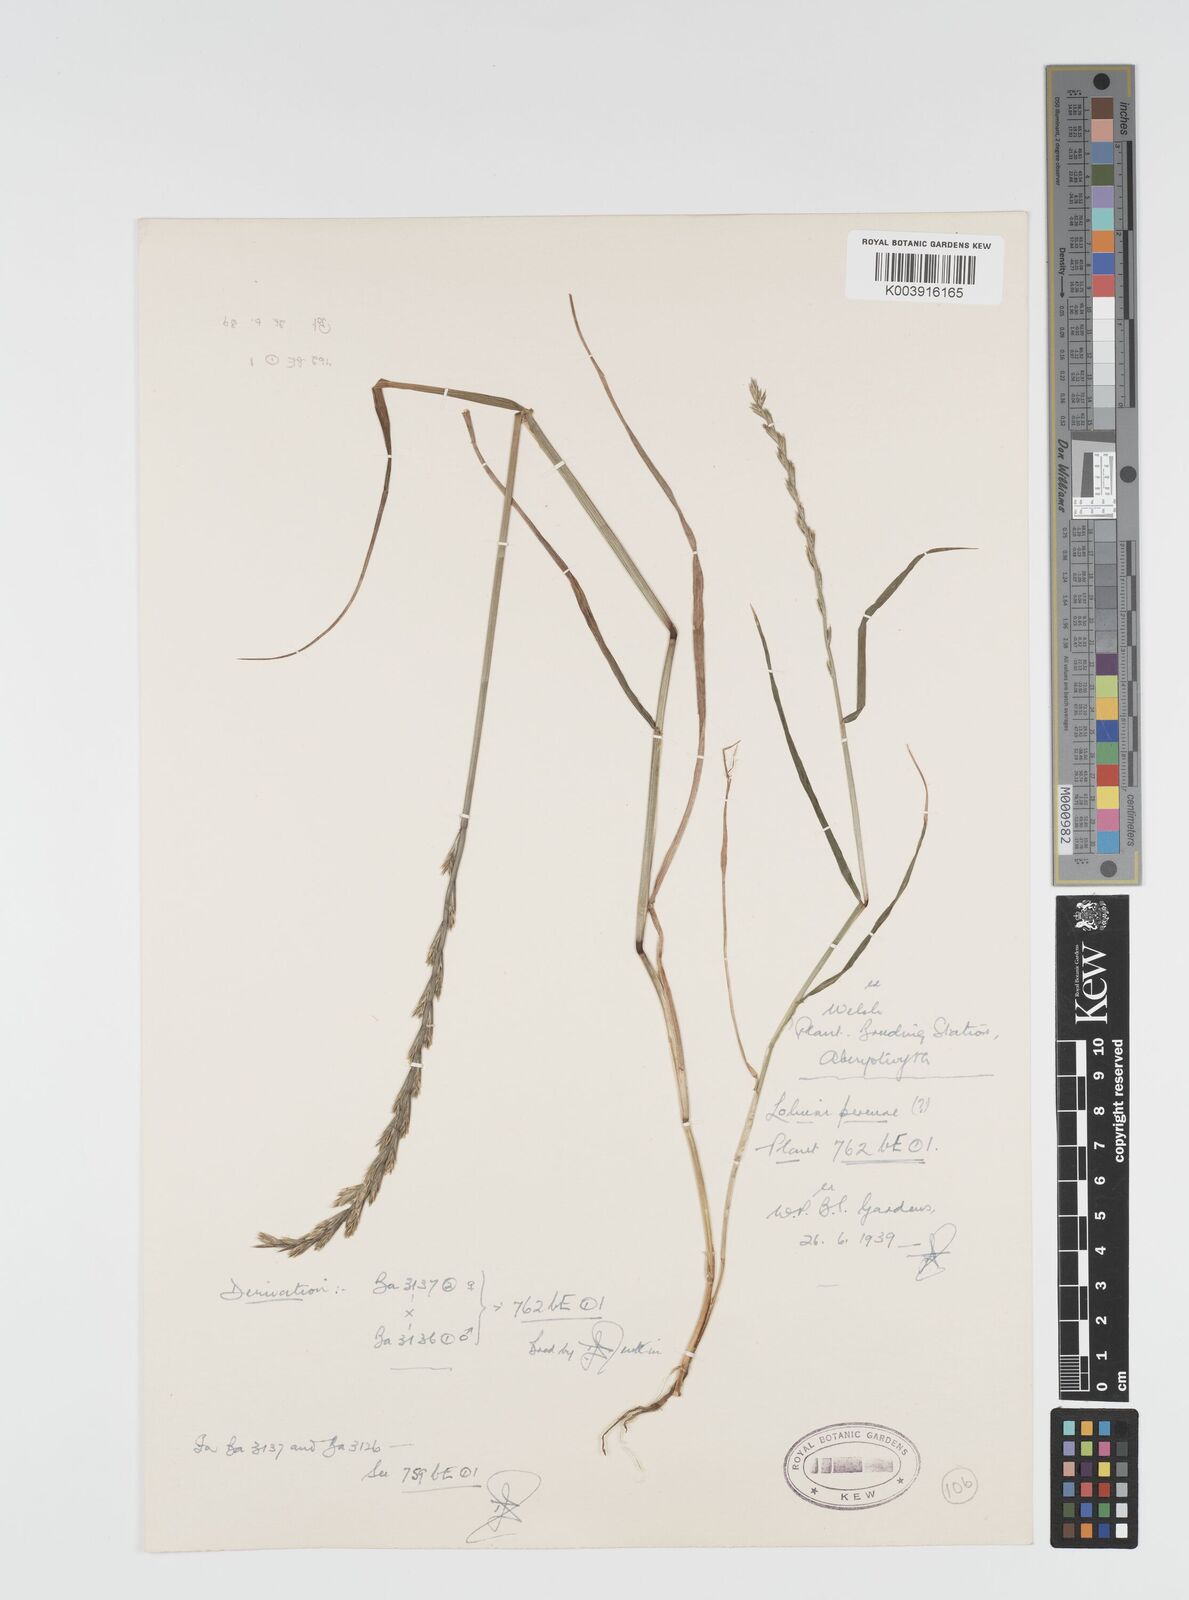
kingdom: Plantae
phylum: Tracheophyta
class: Liliopsida
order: Poales
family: Poaceae
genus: Lolium
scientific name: Lolium rigidum
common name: Wimmera ryegrass
